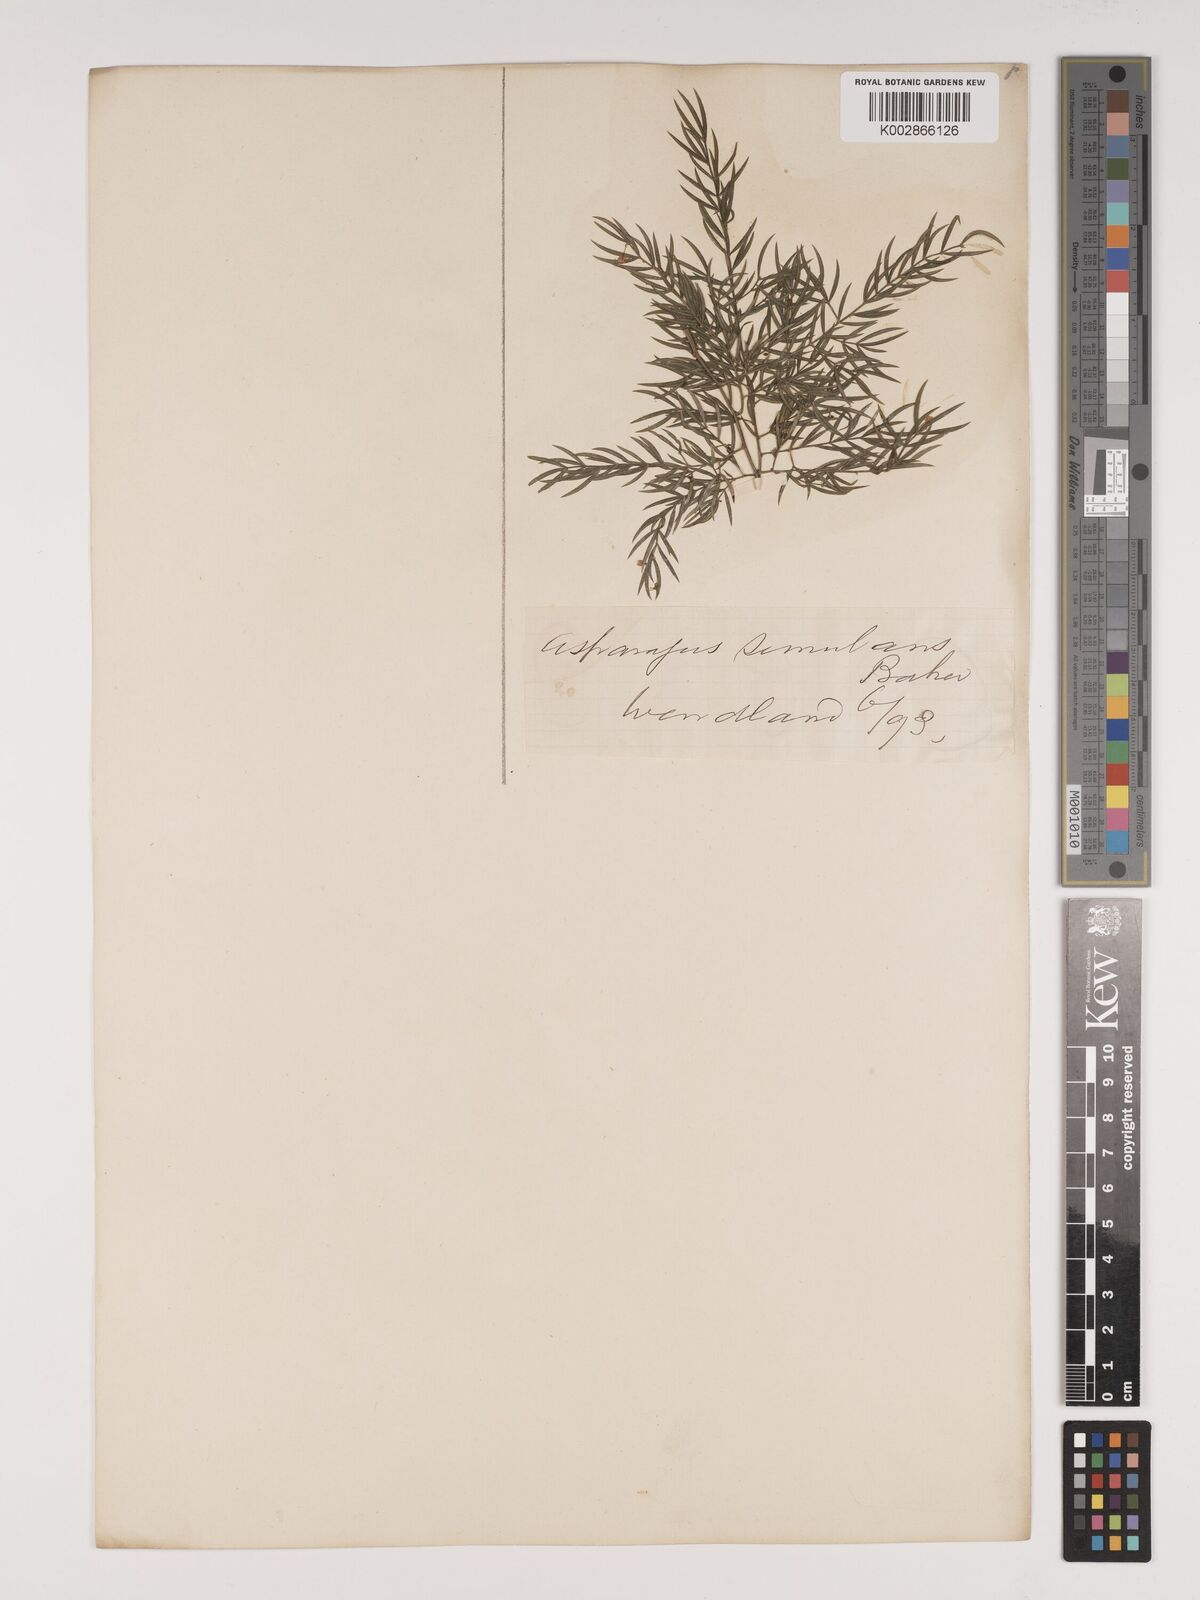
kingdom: Plantae
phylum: Tracheophyta
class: Liliopsida
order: Asparagales
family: Asparagaceae
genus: Asparagus
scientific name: Asparagus simulans
